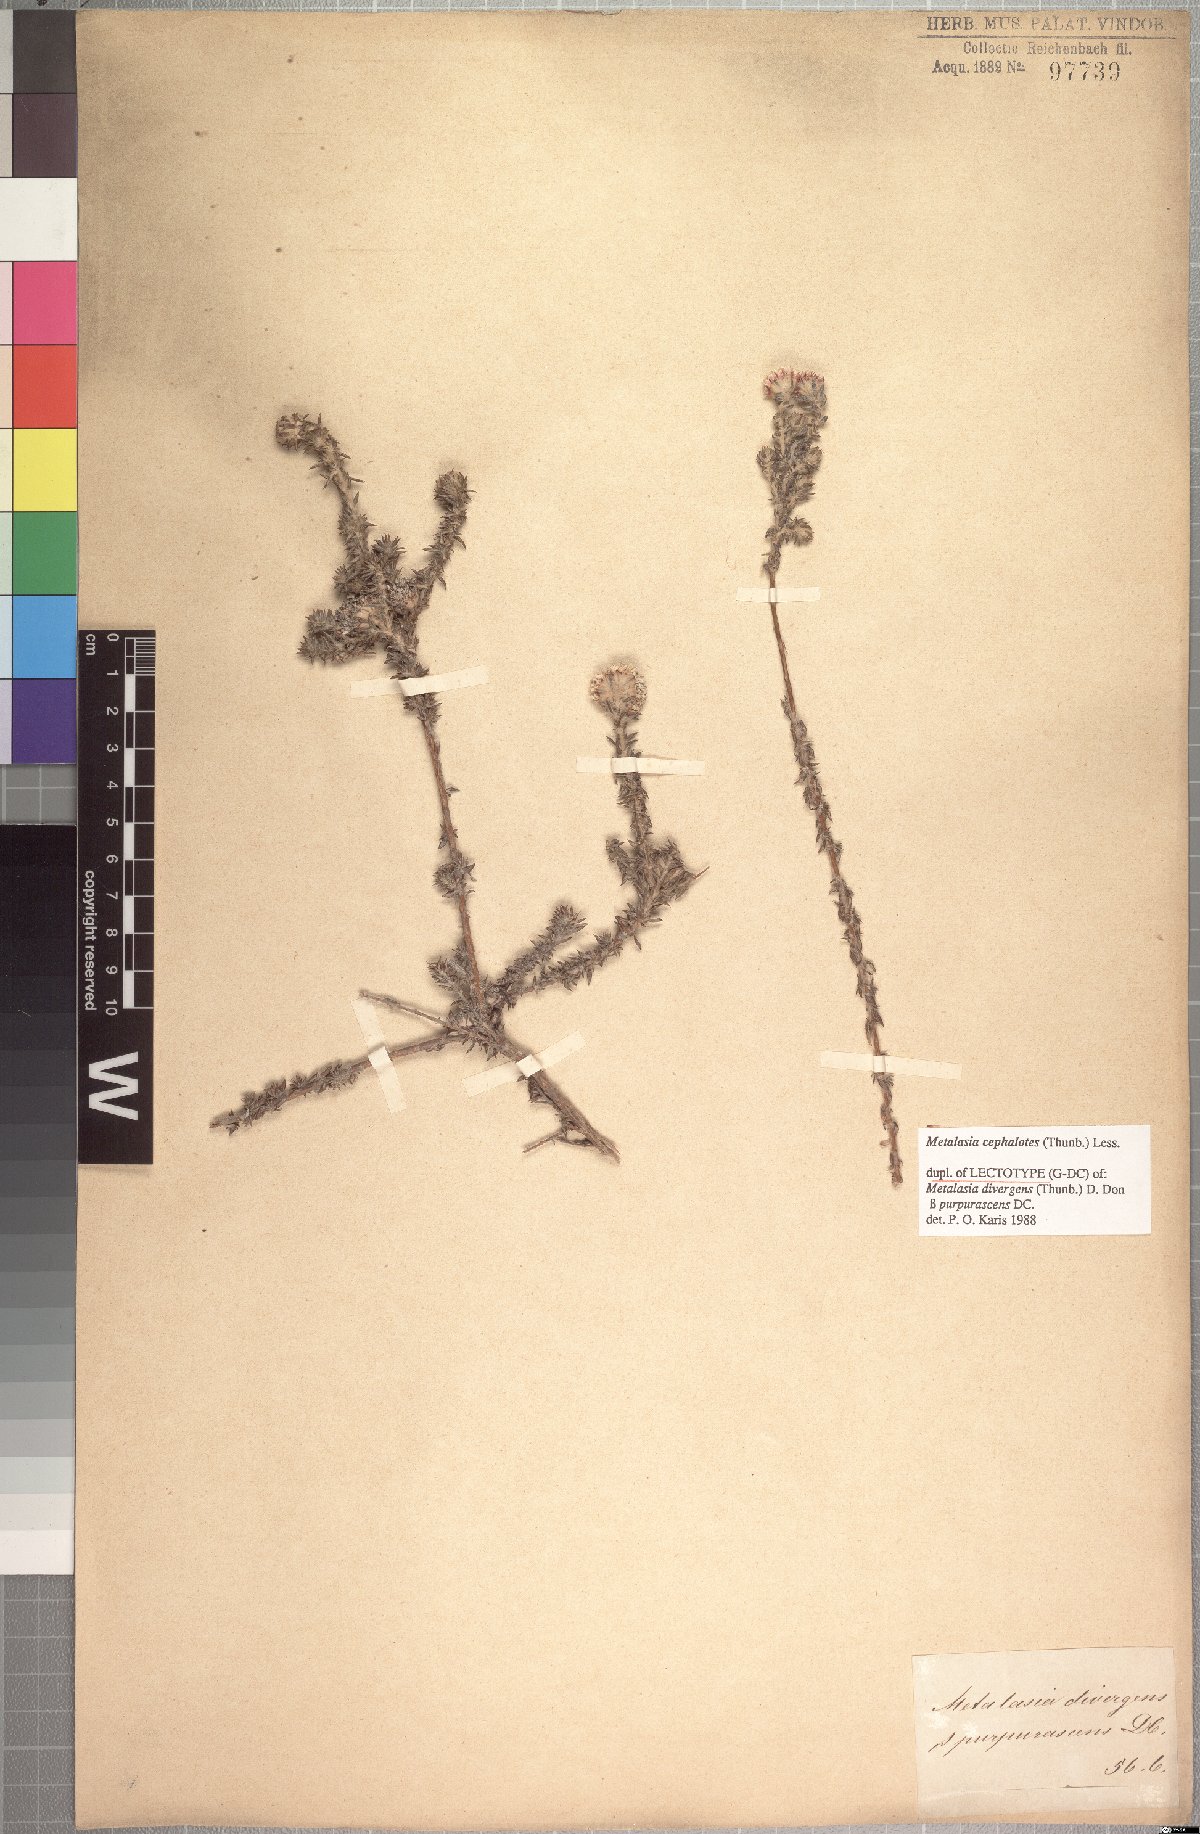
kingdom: Plantae
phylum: Tracheophyta
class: Magnoliopsida
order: Asterales
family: Asteraceae
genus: Metalasia
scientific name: Metalasia cephalotes
